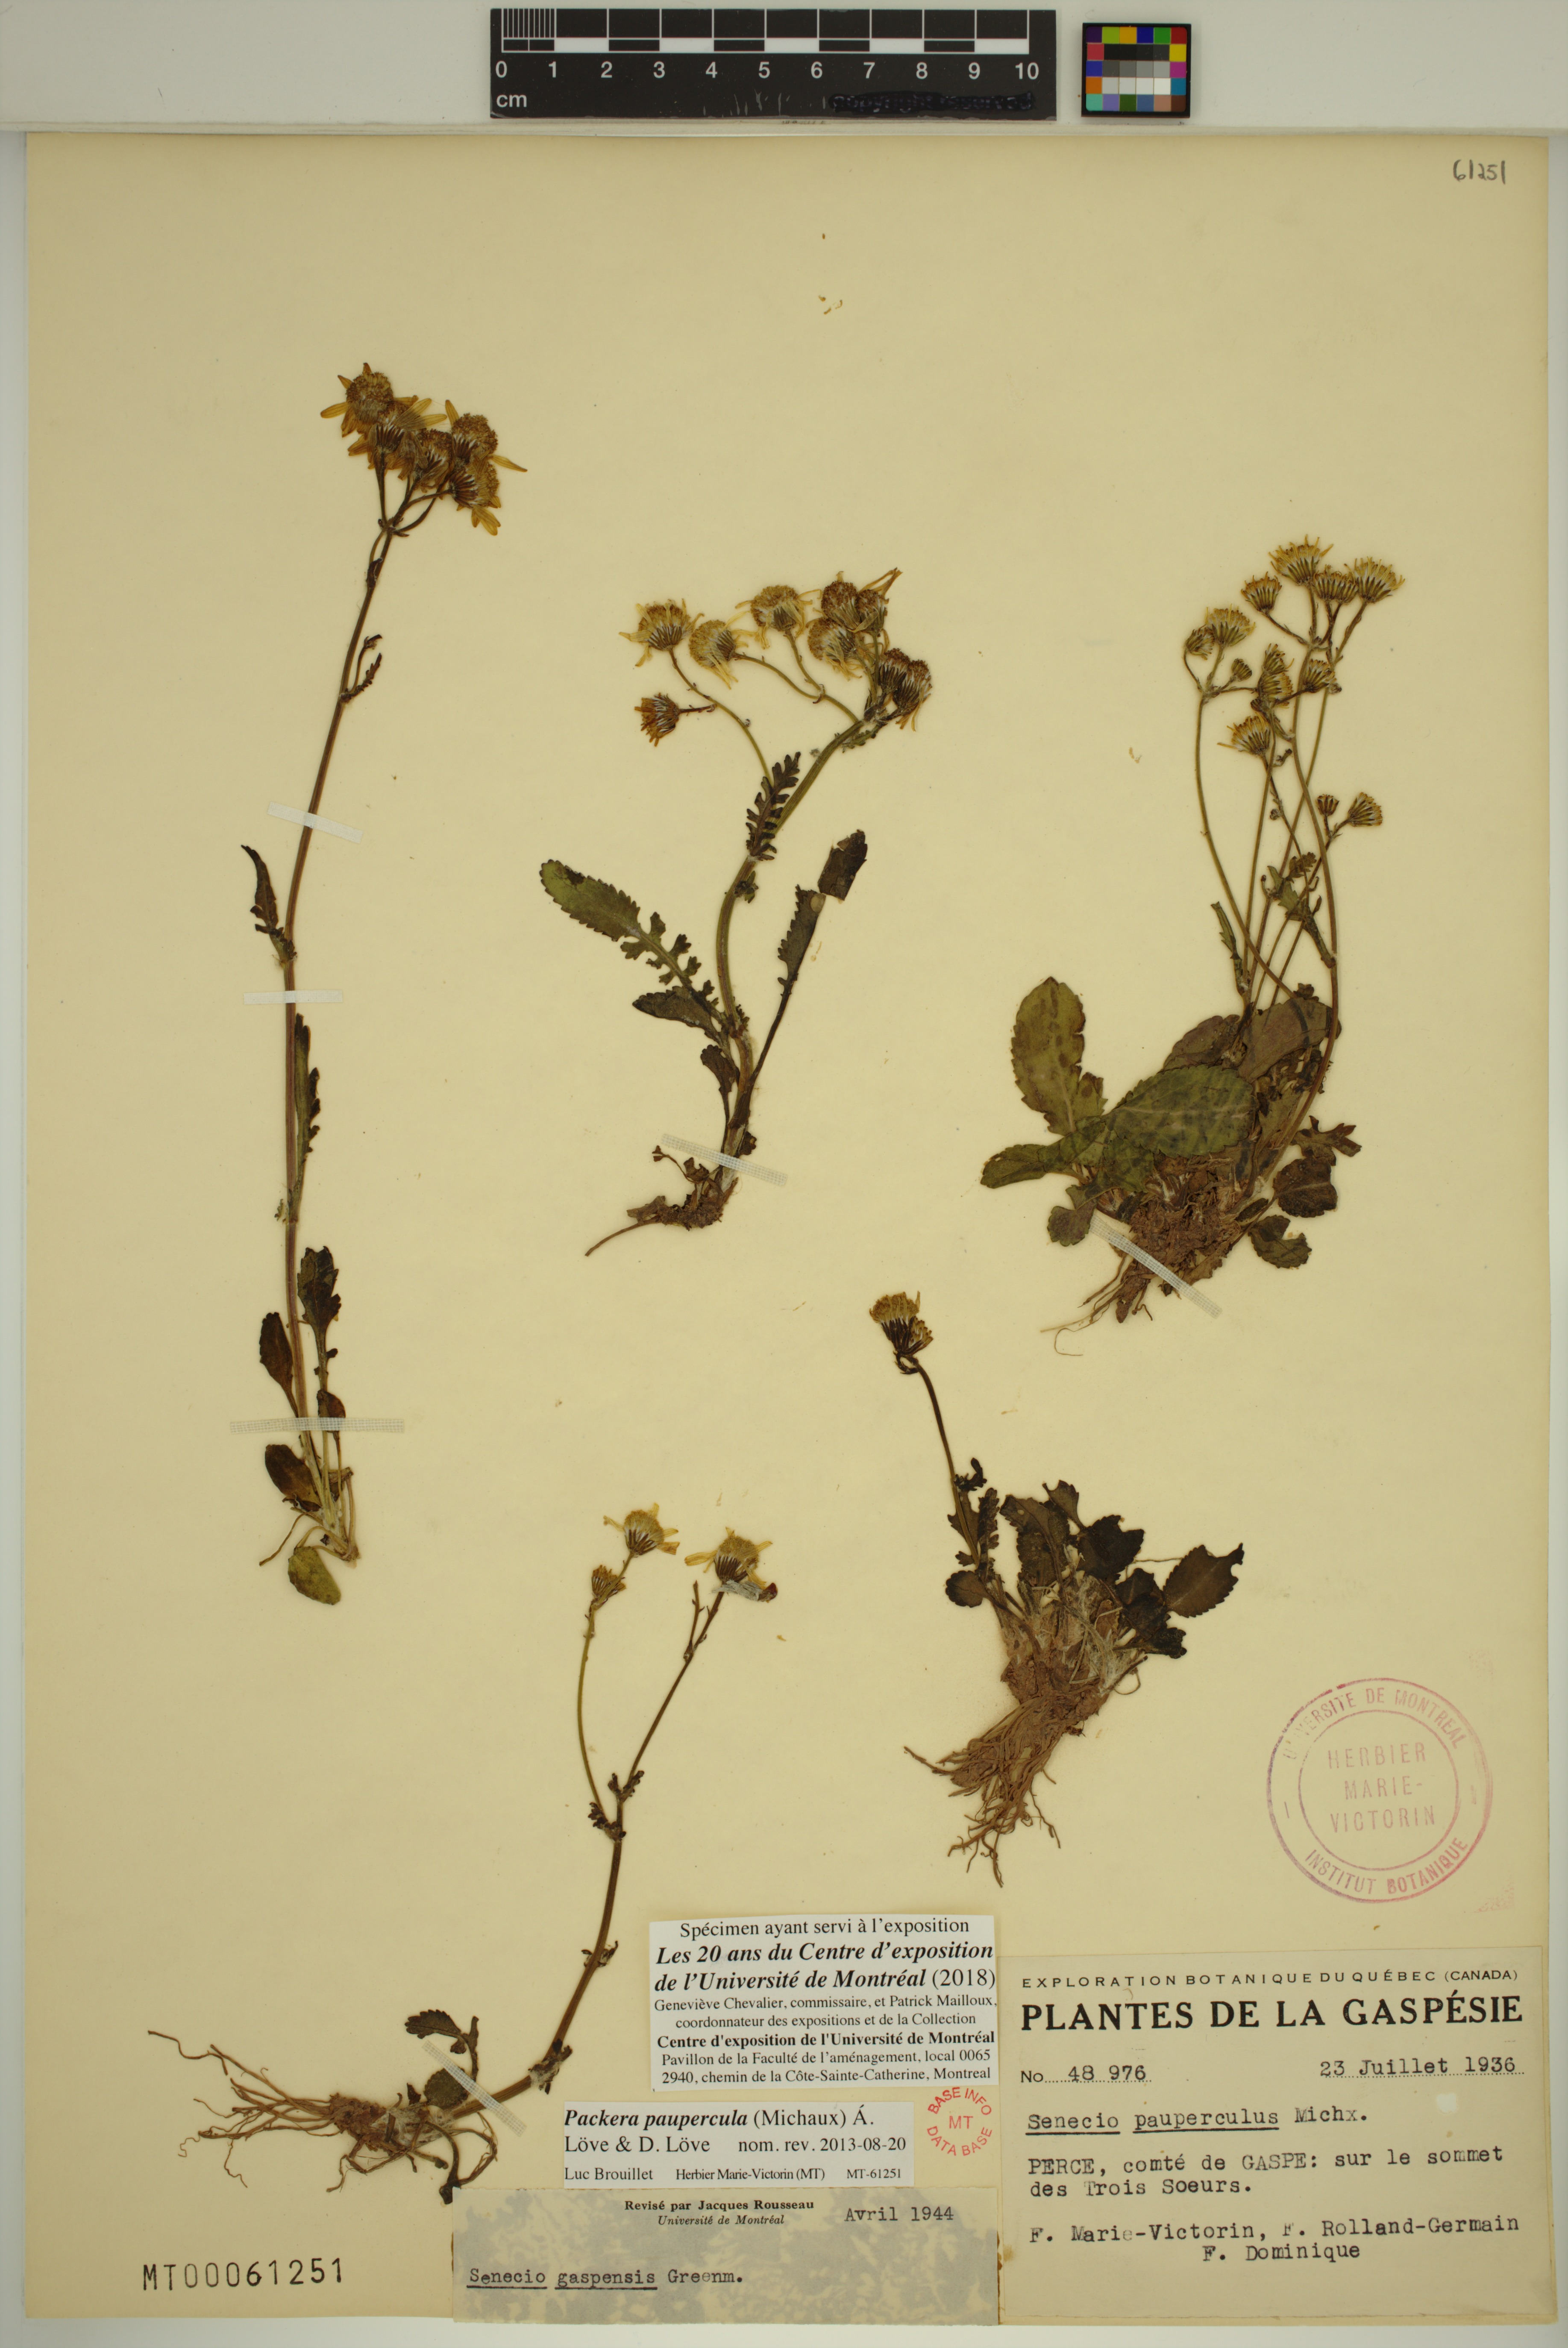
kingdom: Plantae
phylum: Tracheophyta
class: Magnoliopsida
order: Asterales
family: Asteraceae
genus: Packera
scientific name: Packera paupercula
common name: Balsam groundsel
